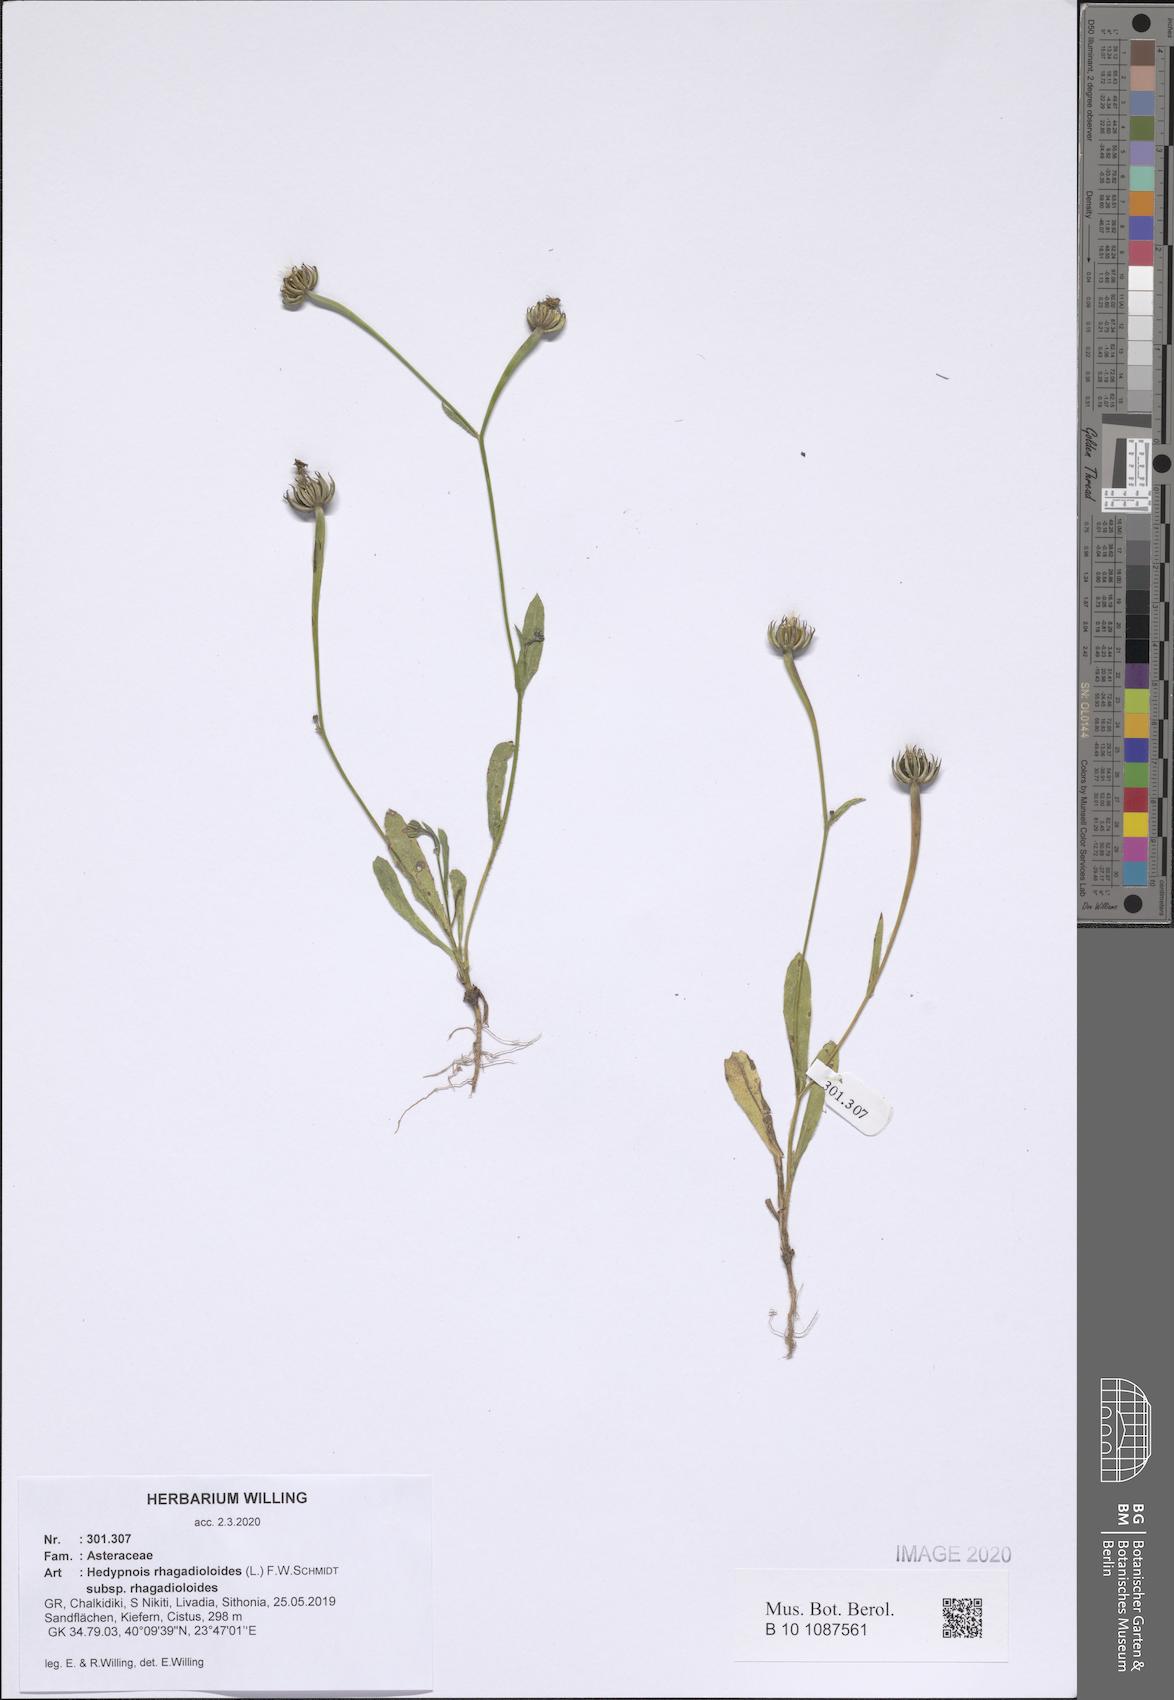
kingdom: Plantae
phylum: Tracheophyta
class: Magnoliopsida
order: Asterales
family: Asteraceae
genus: Hedypnois
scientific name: Hedypnois rhagadioloides
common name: Cretan weed
